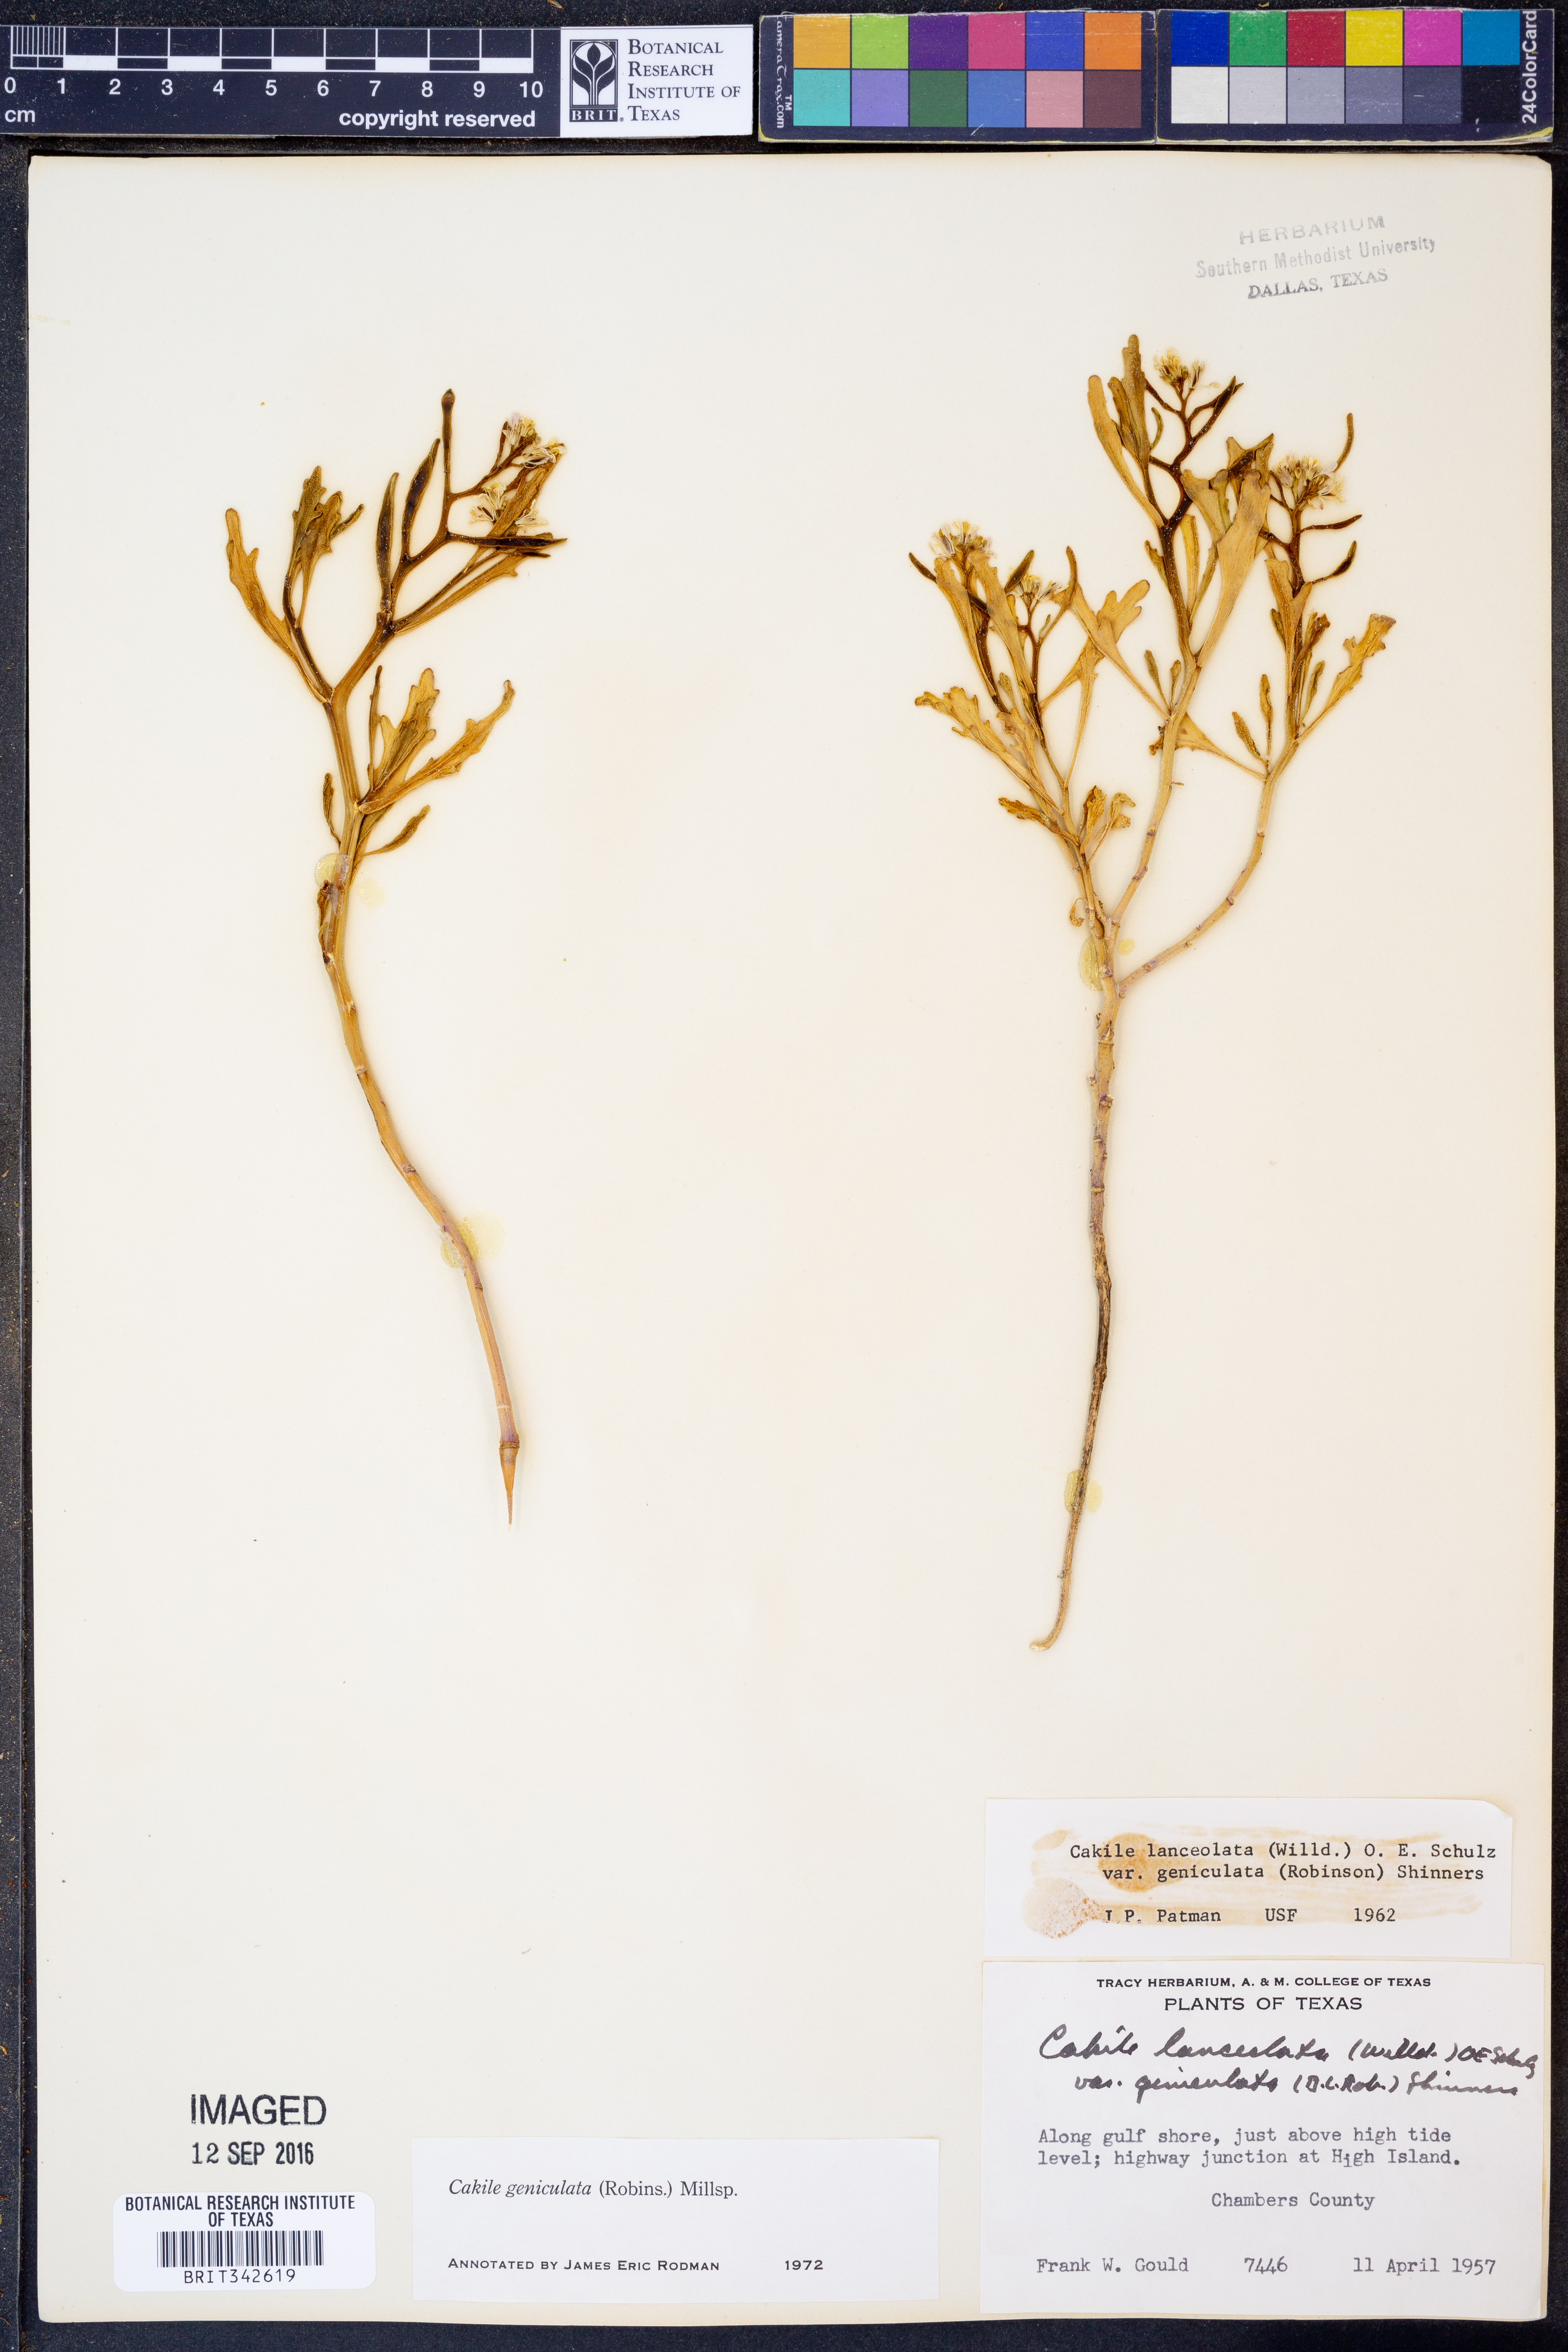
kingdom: Plantae
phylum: Tracheophyta
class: Magnoliopsida
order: Brassicales
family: Brassicaceae
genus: Cakile
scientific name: Cakile geniculata
